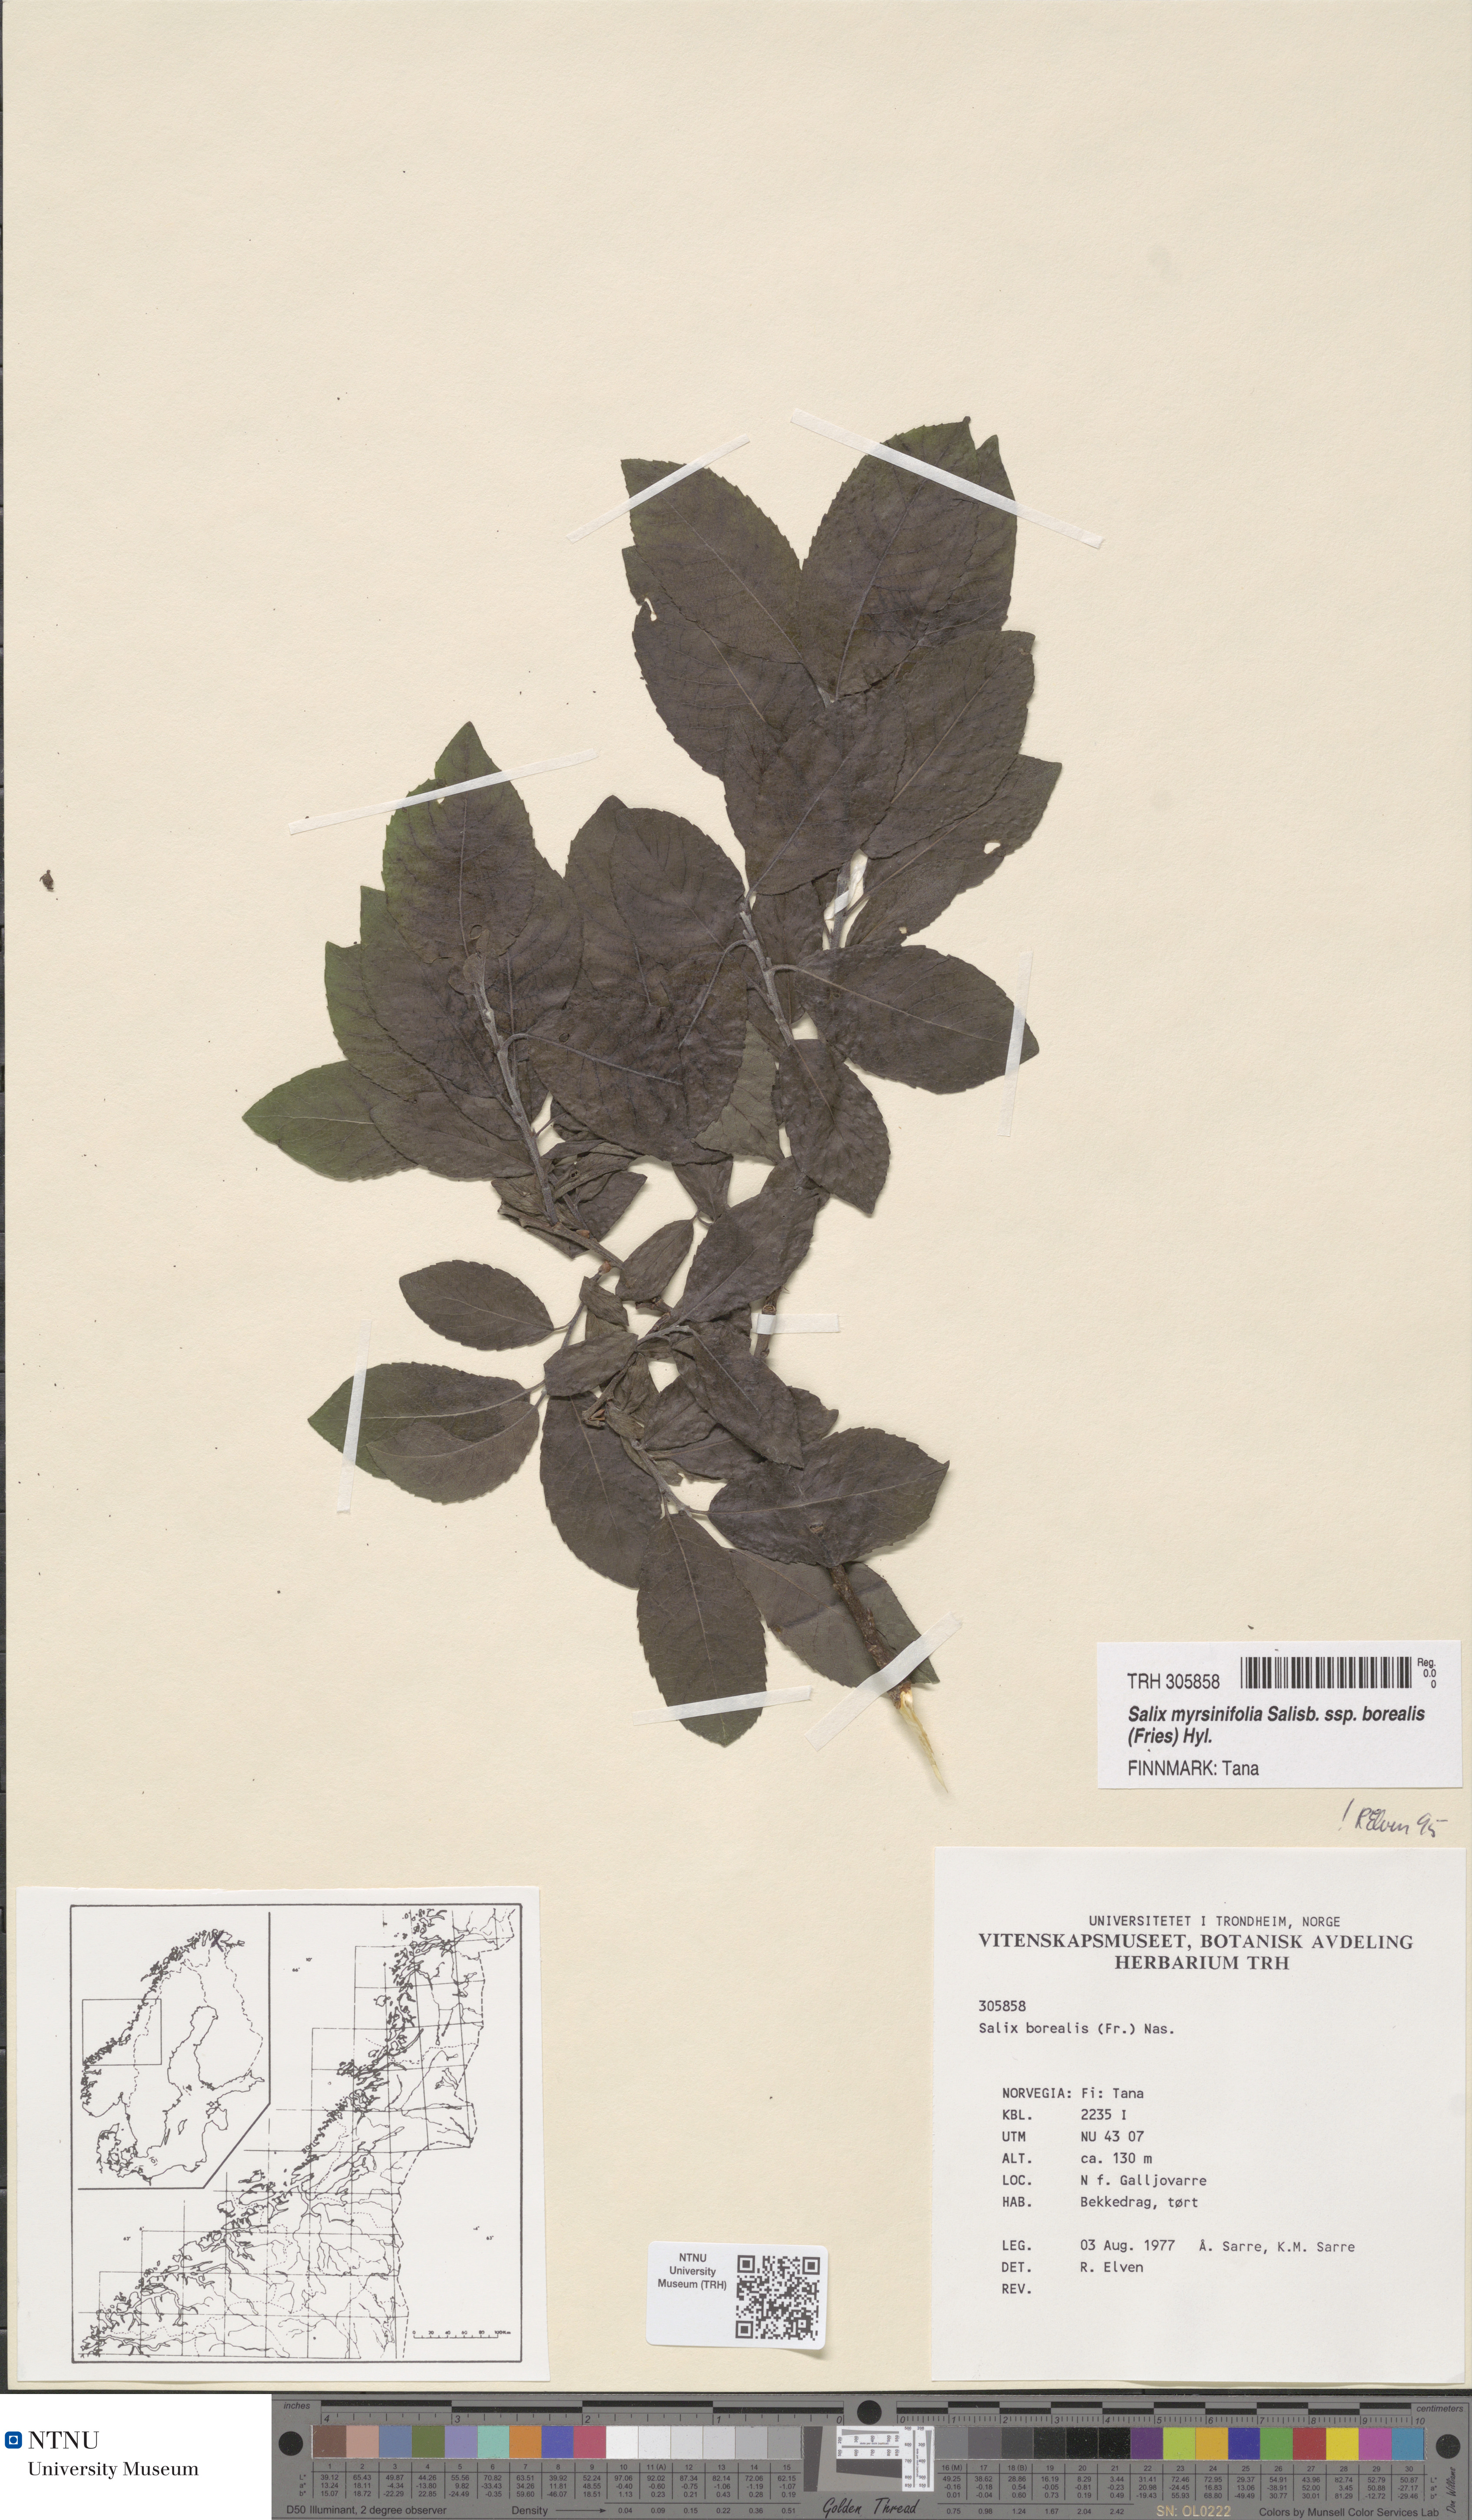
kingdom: Plantae
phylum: Tracheophyta
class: Magnoliopsida
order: Malpighiales
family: Salicaceae
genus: Salix
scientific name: Salix myrsinifolia
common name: Dark-leaved willow
